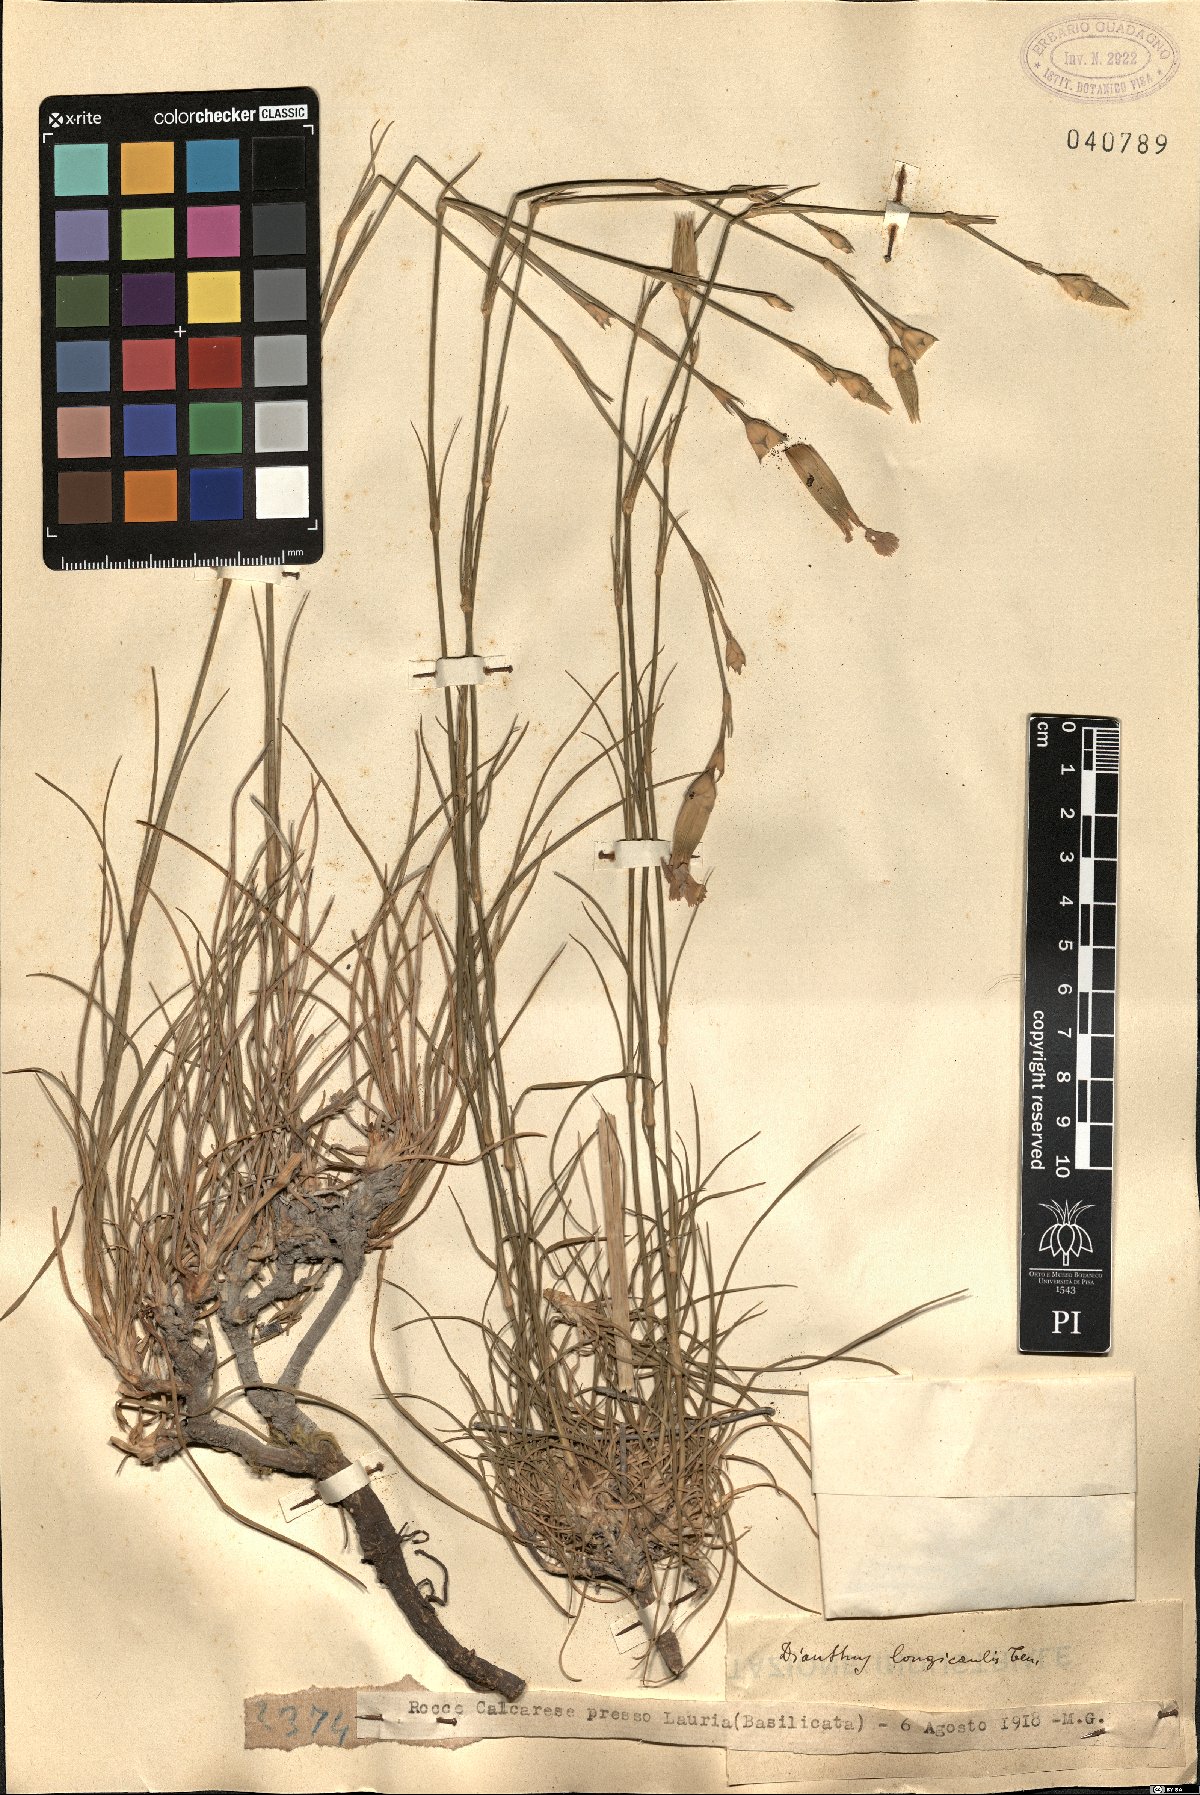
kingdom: Plantae
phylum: Tracheophyta
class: Magnoliopsida
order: Caryophyllales
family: Caryophyllaceae
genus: Dianthus
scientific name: Dianthus virgineus
